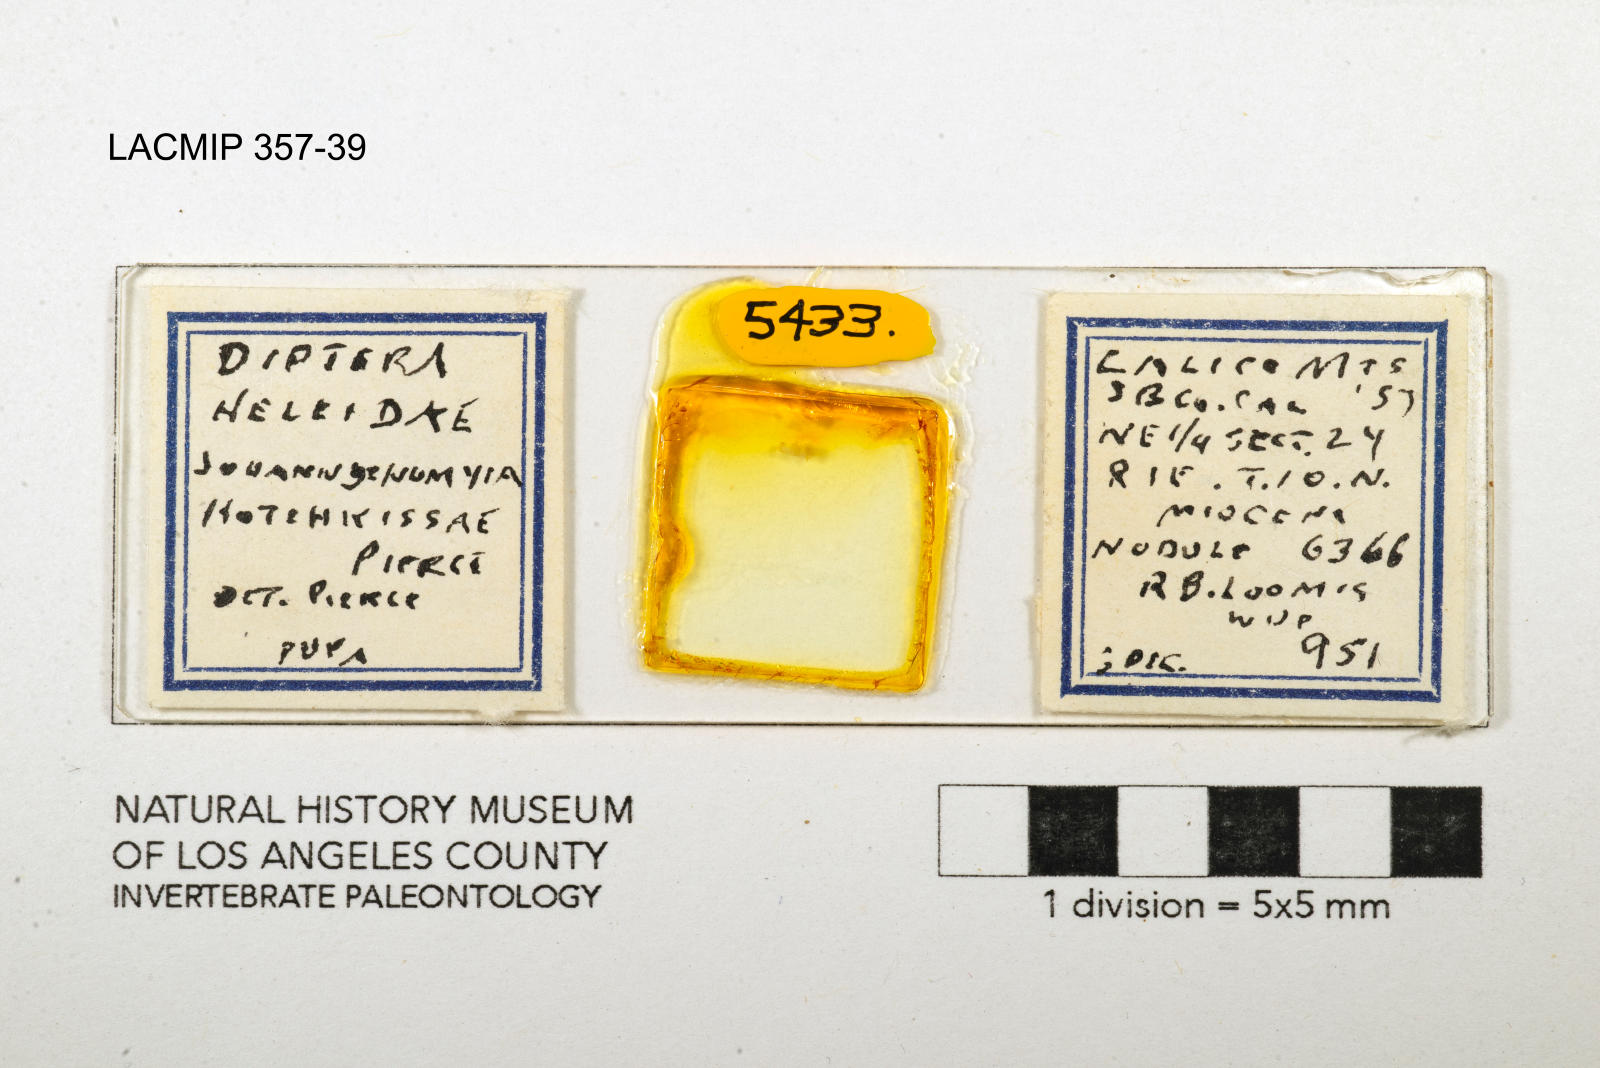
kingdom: Animalia
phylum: Arthropoda
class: Insecta
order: Diptera
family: Ceratopogonidae
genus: Johannsenomyia
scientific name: Johannsenomyia
